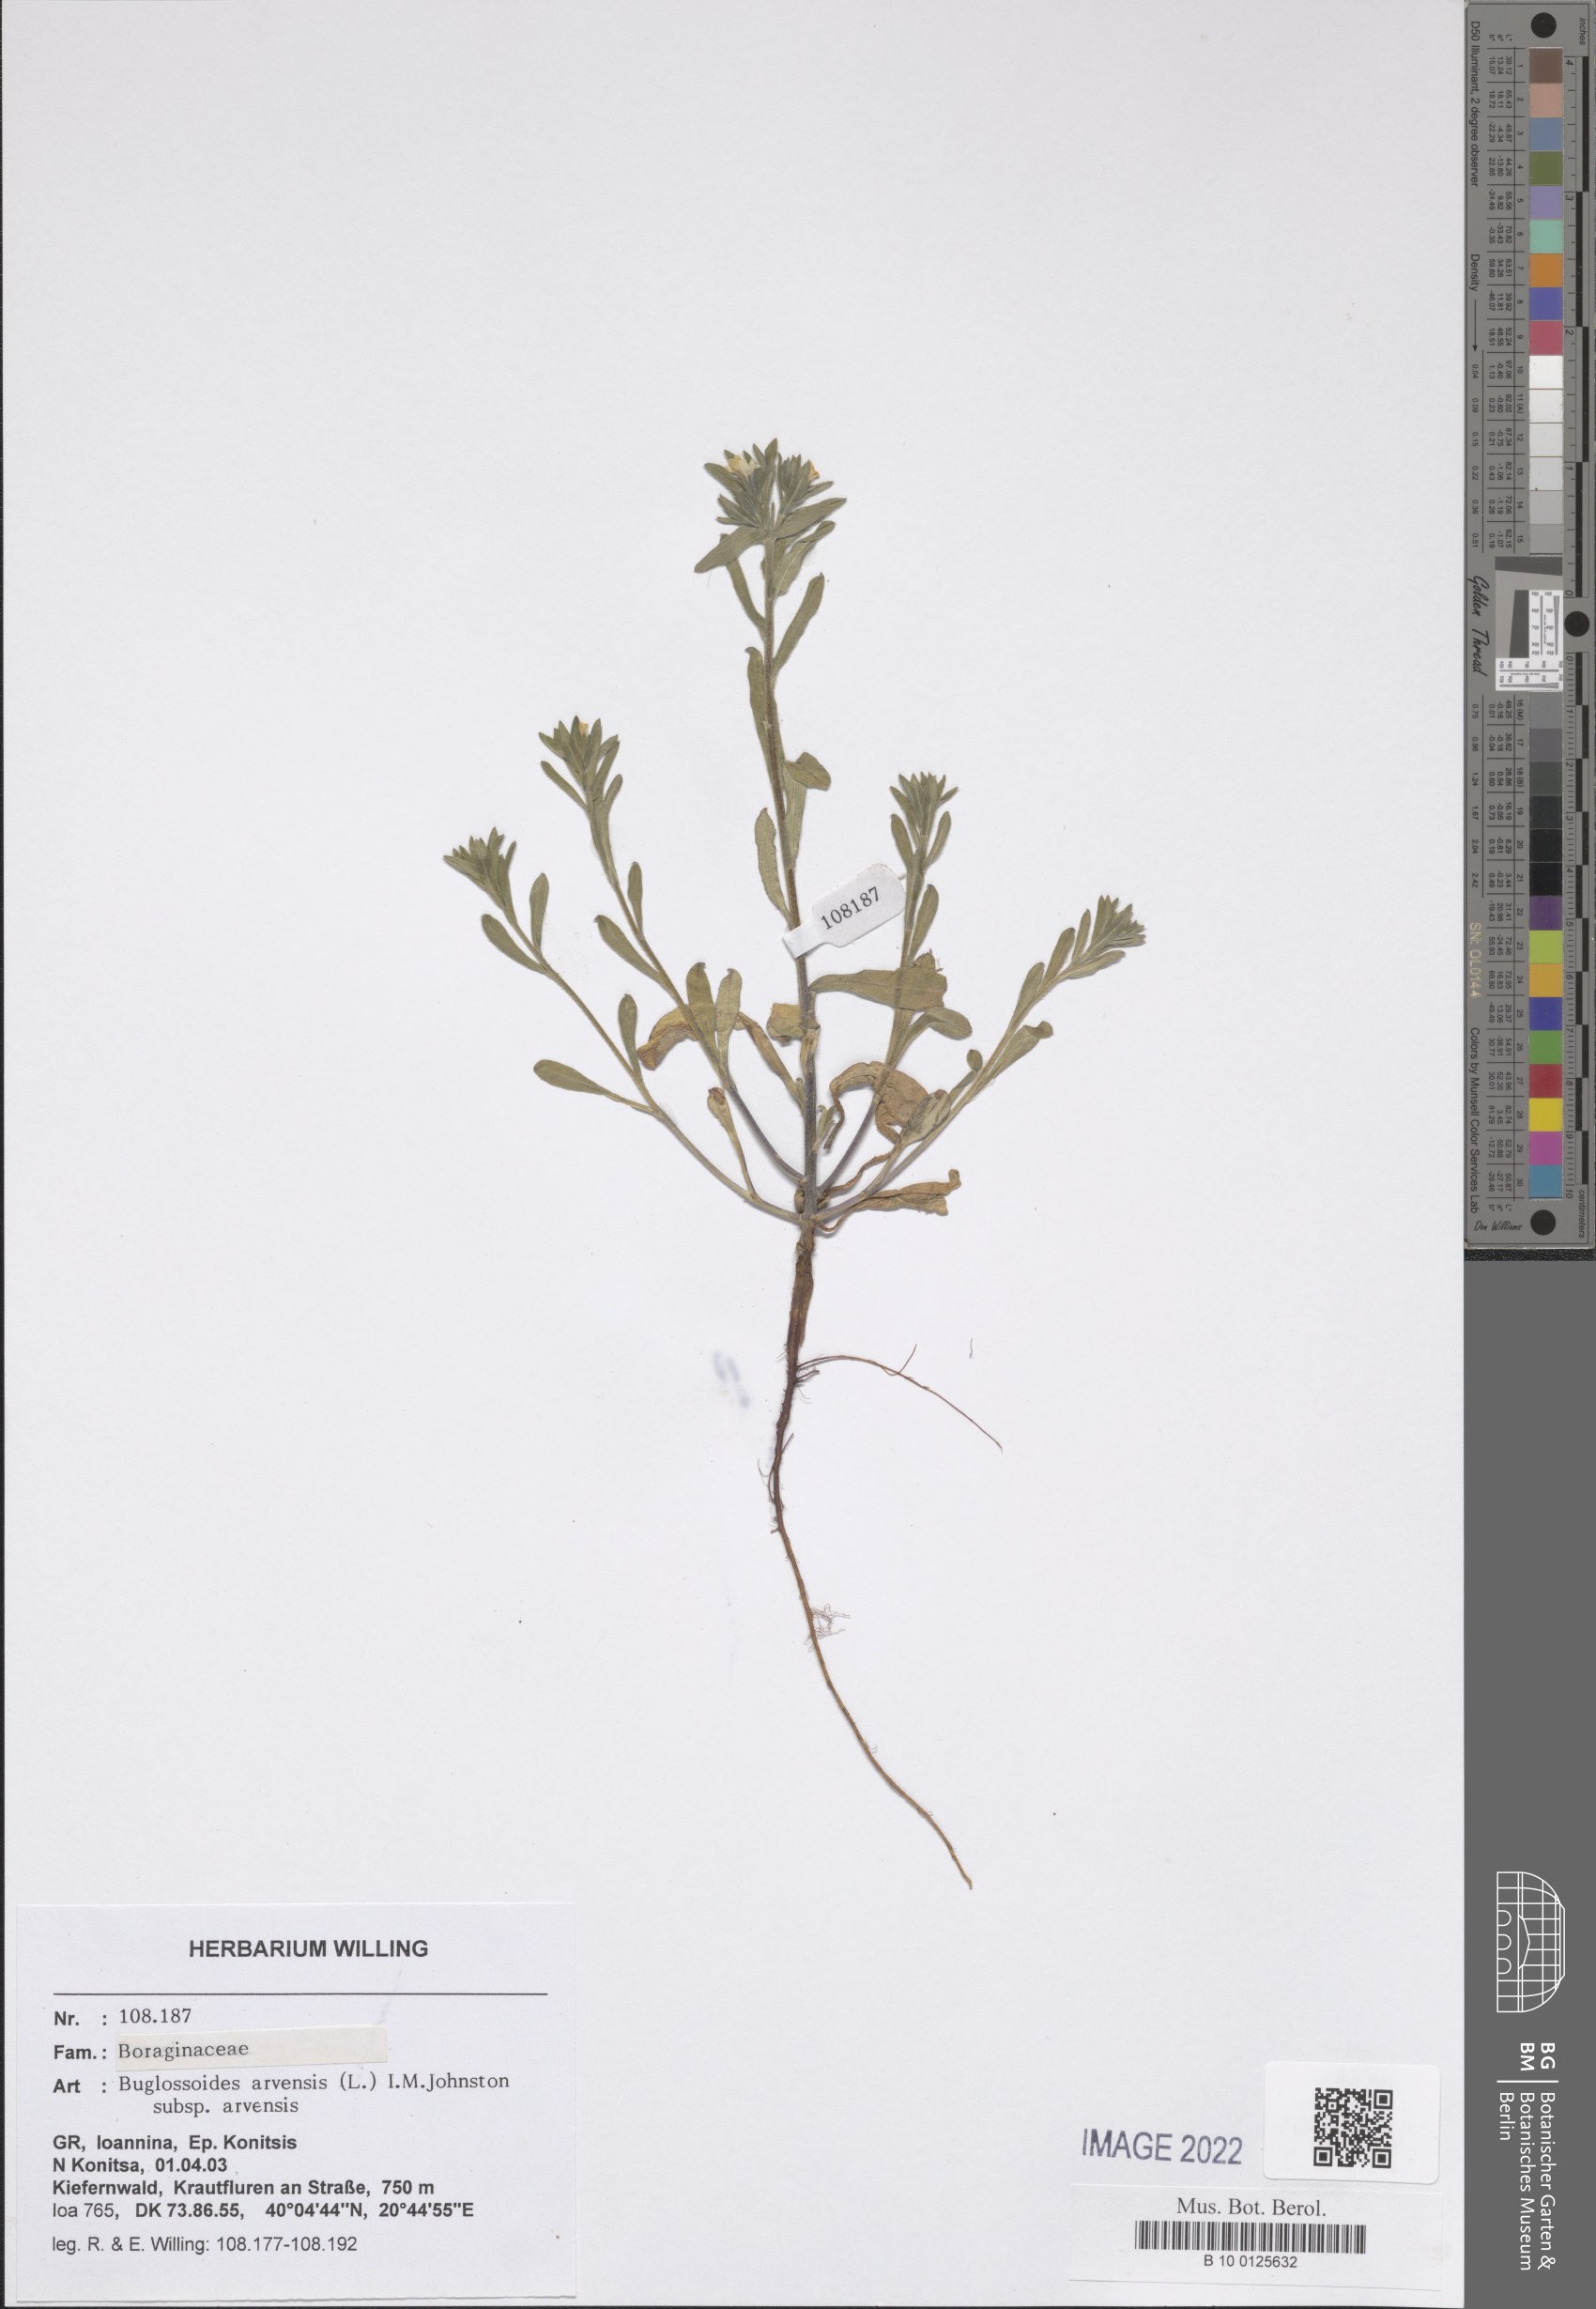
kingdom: Plantae
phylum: Tracheophyta
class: Magnoliopsida
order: Boraginales
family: Boraginaceae
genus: Buglossoides
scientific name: Buglossoides arvensis
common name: Corn gromwell
